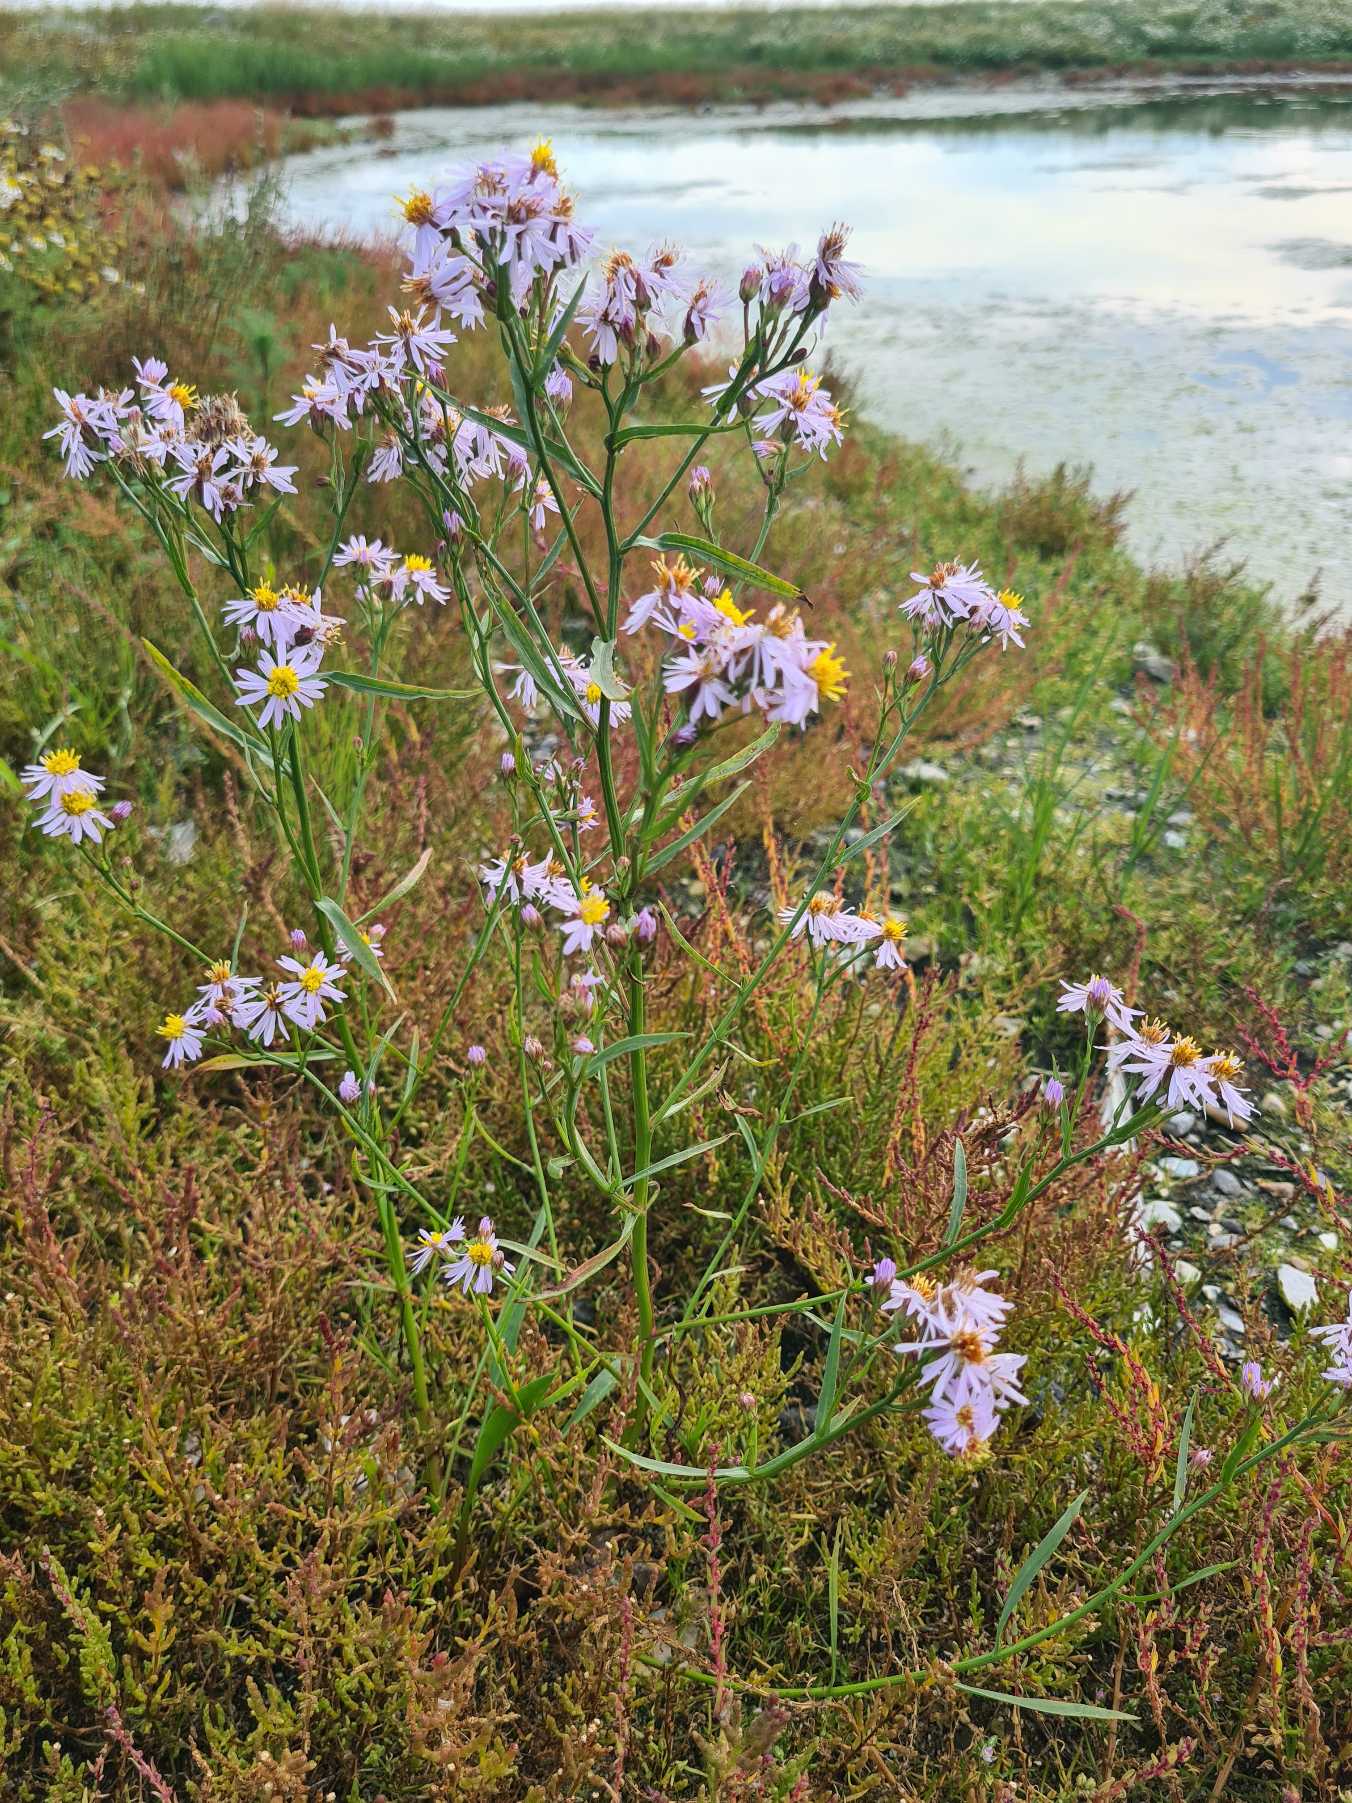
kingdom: Plantae
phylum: Tracheophyta
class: Magnoliopsida
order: Asterales
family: Asteraceae
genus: Tripolium
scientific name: Tripolium pannonicum
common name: Strandasters (underart)
